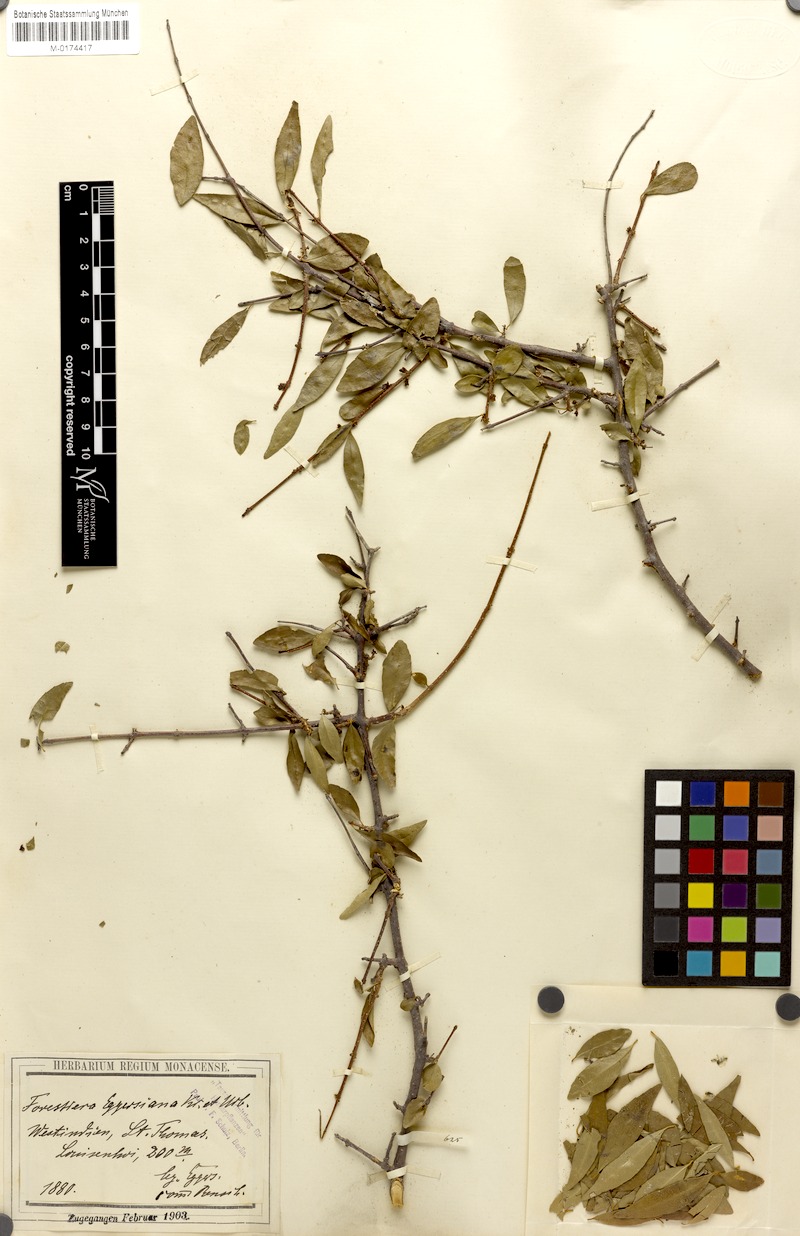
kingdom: Plantae
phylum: Tracheophyta
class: Magnoliopsida
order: Lamiales
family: Oleaceae
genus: Forestiera
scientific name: Forestiera eggersiana
